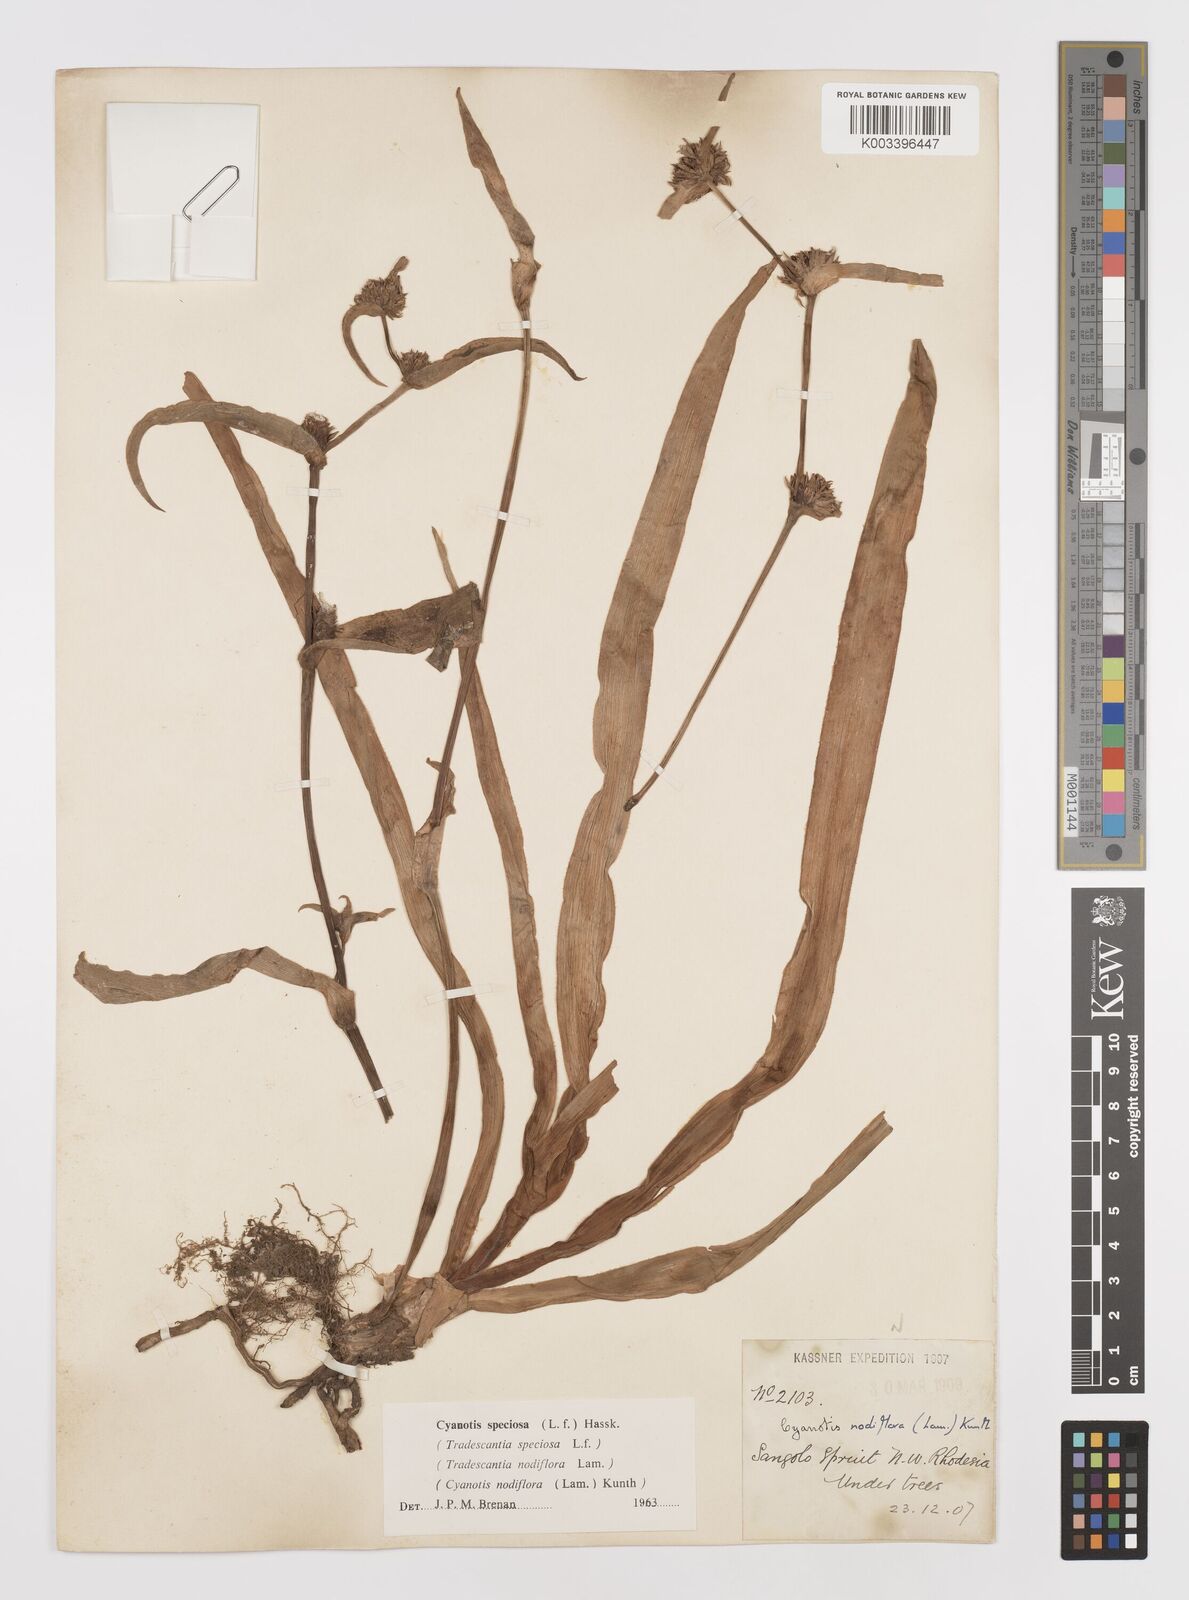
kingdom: Plantae
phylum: Tracheophyta
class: Liliopsida
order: Commelinales
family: Commelinaceae
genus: Cyanotis
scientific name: Cyanotis speciosa
